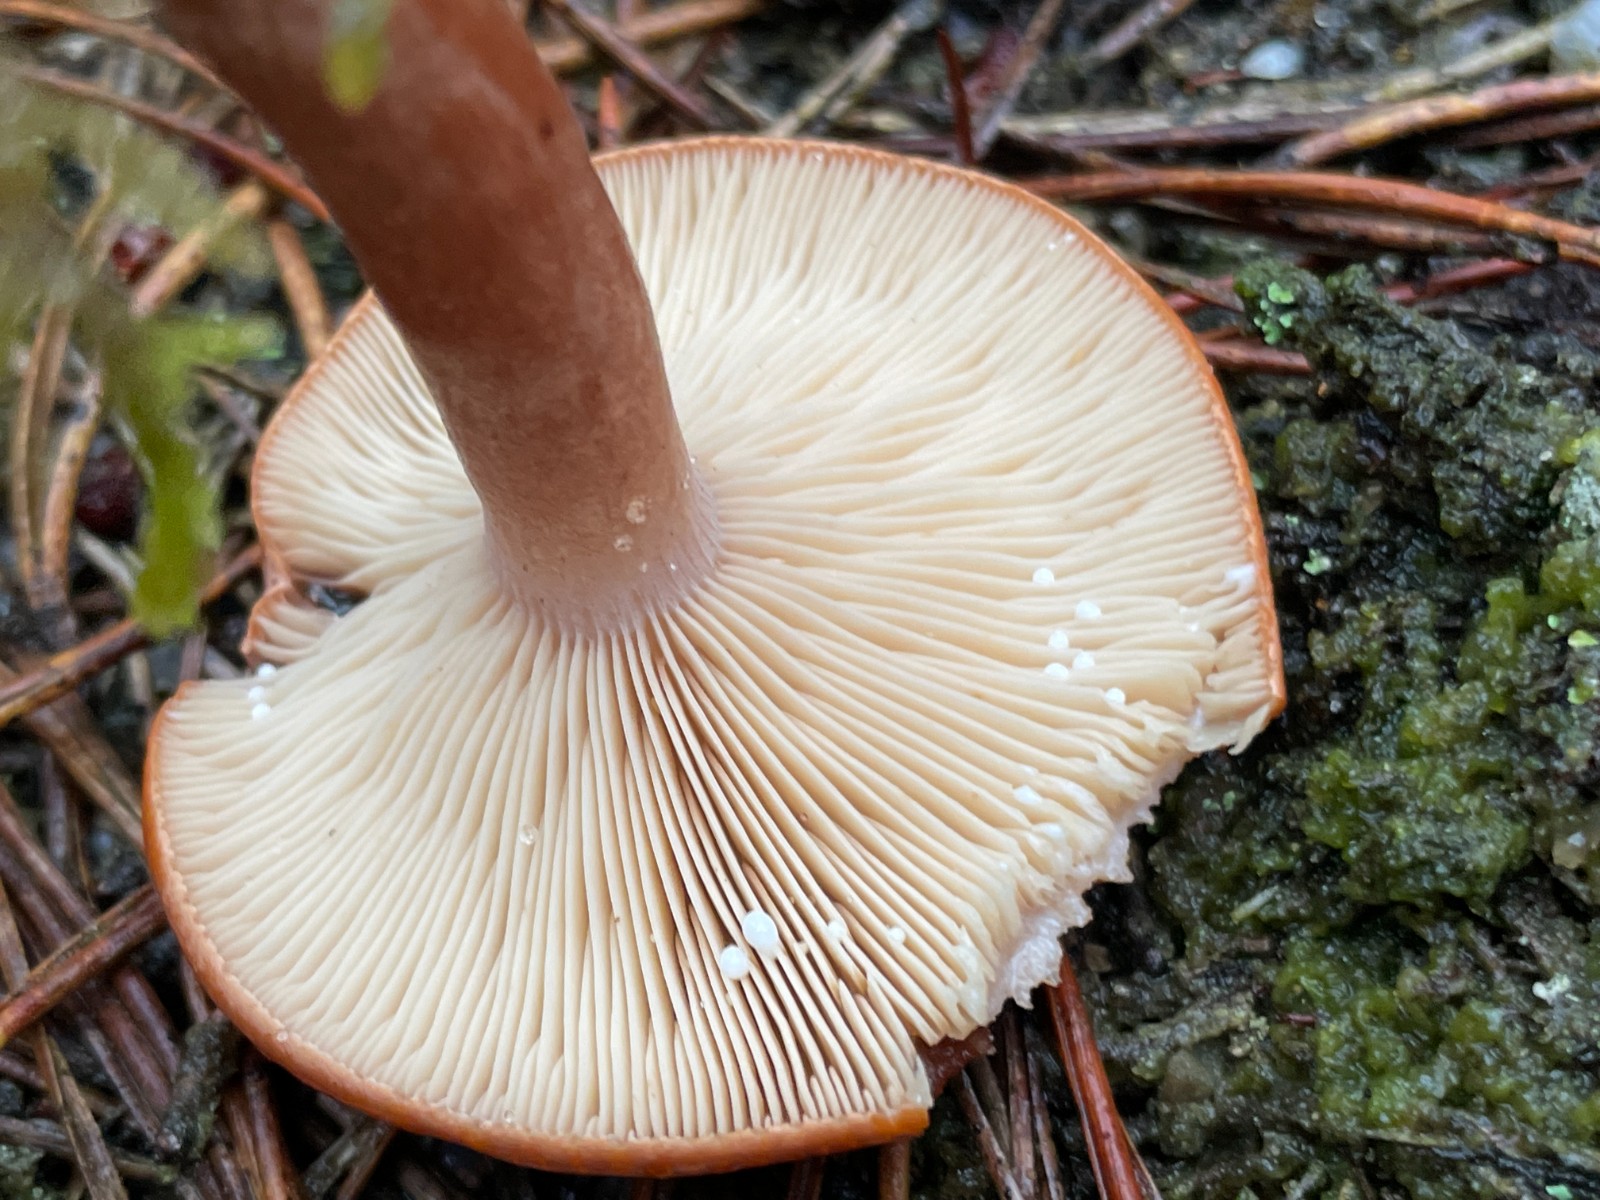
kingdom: Fungi
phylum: Basidiomycota
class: Agaricomycetes
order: Russulales
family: Russulaceae
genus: Lactarius
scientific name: Lactarius rufus
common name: rødbrun mælkehat
